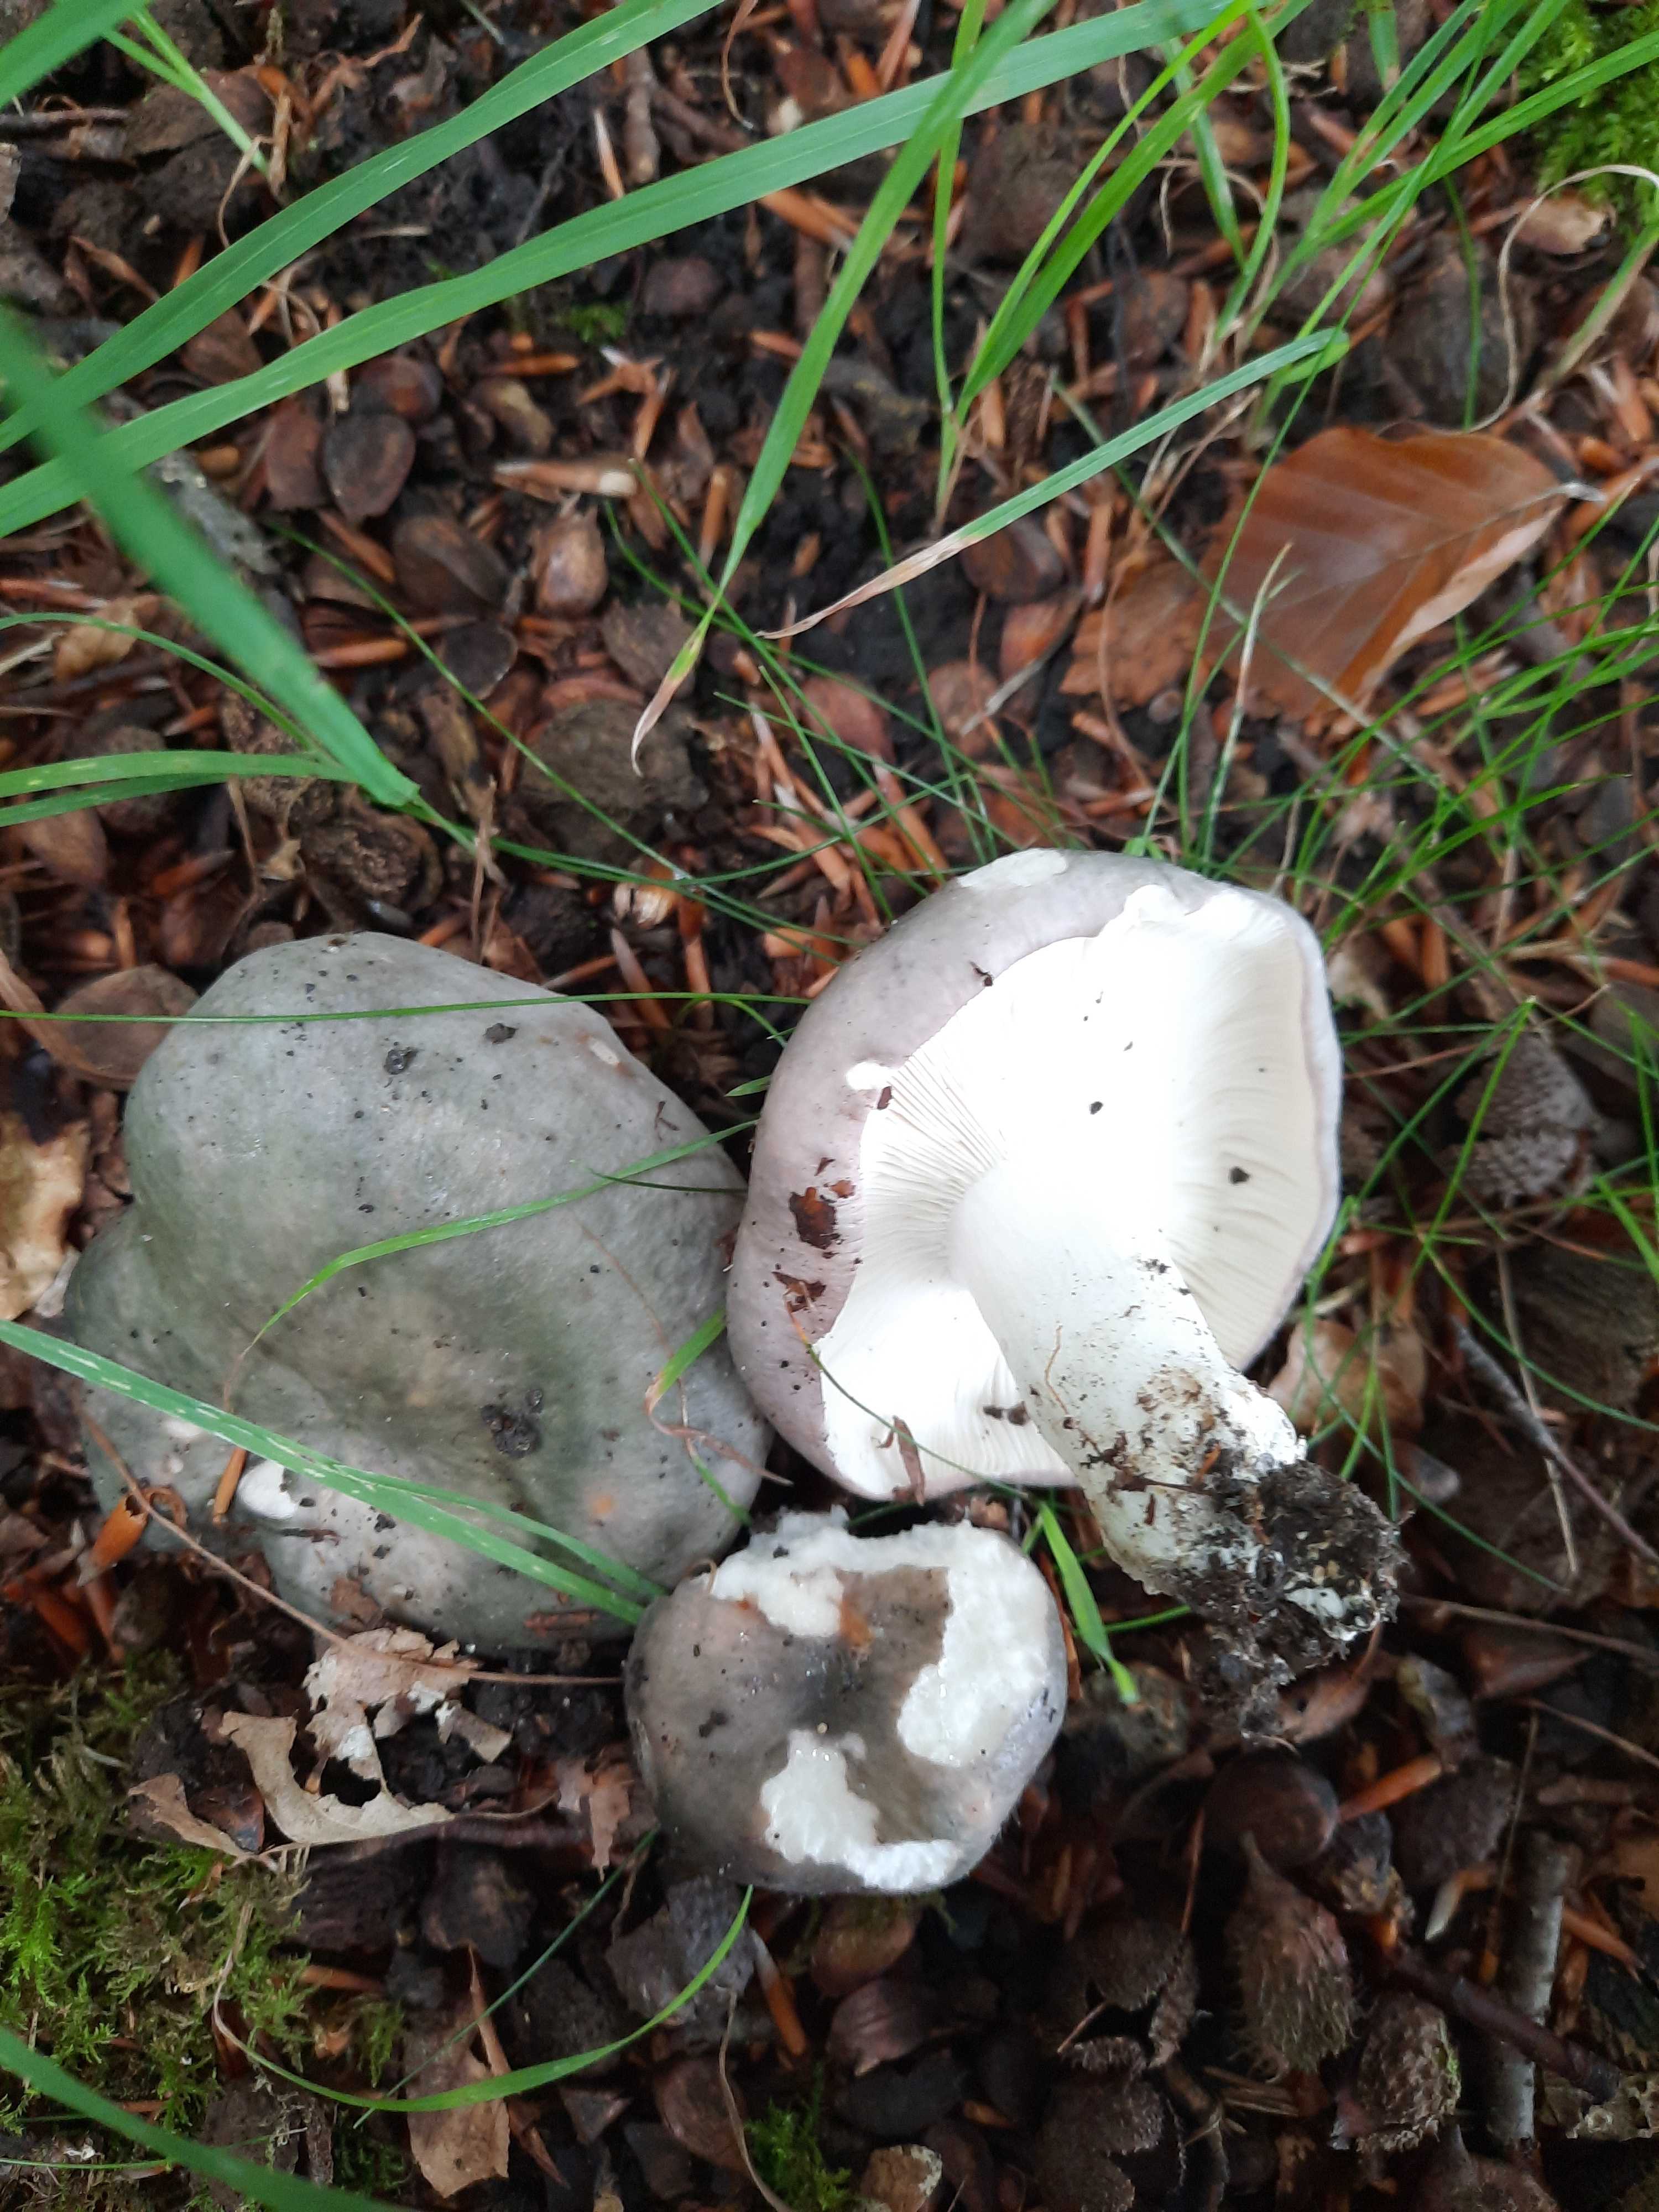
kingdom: Fungi
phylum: Basidiomycota
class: Agaricomycetes
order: Russulales
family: Russulaceae
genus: Russula
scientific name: Russula cyanoxantha
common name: broget skørhat
